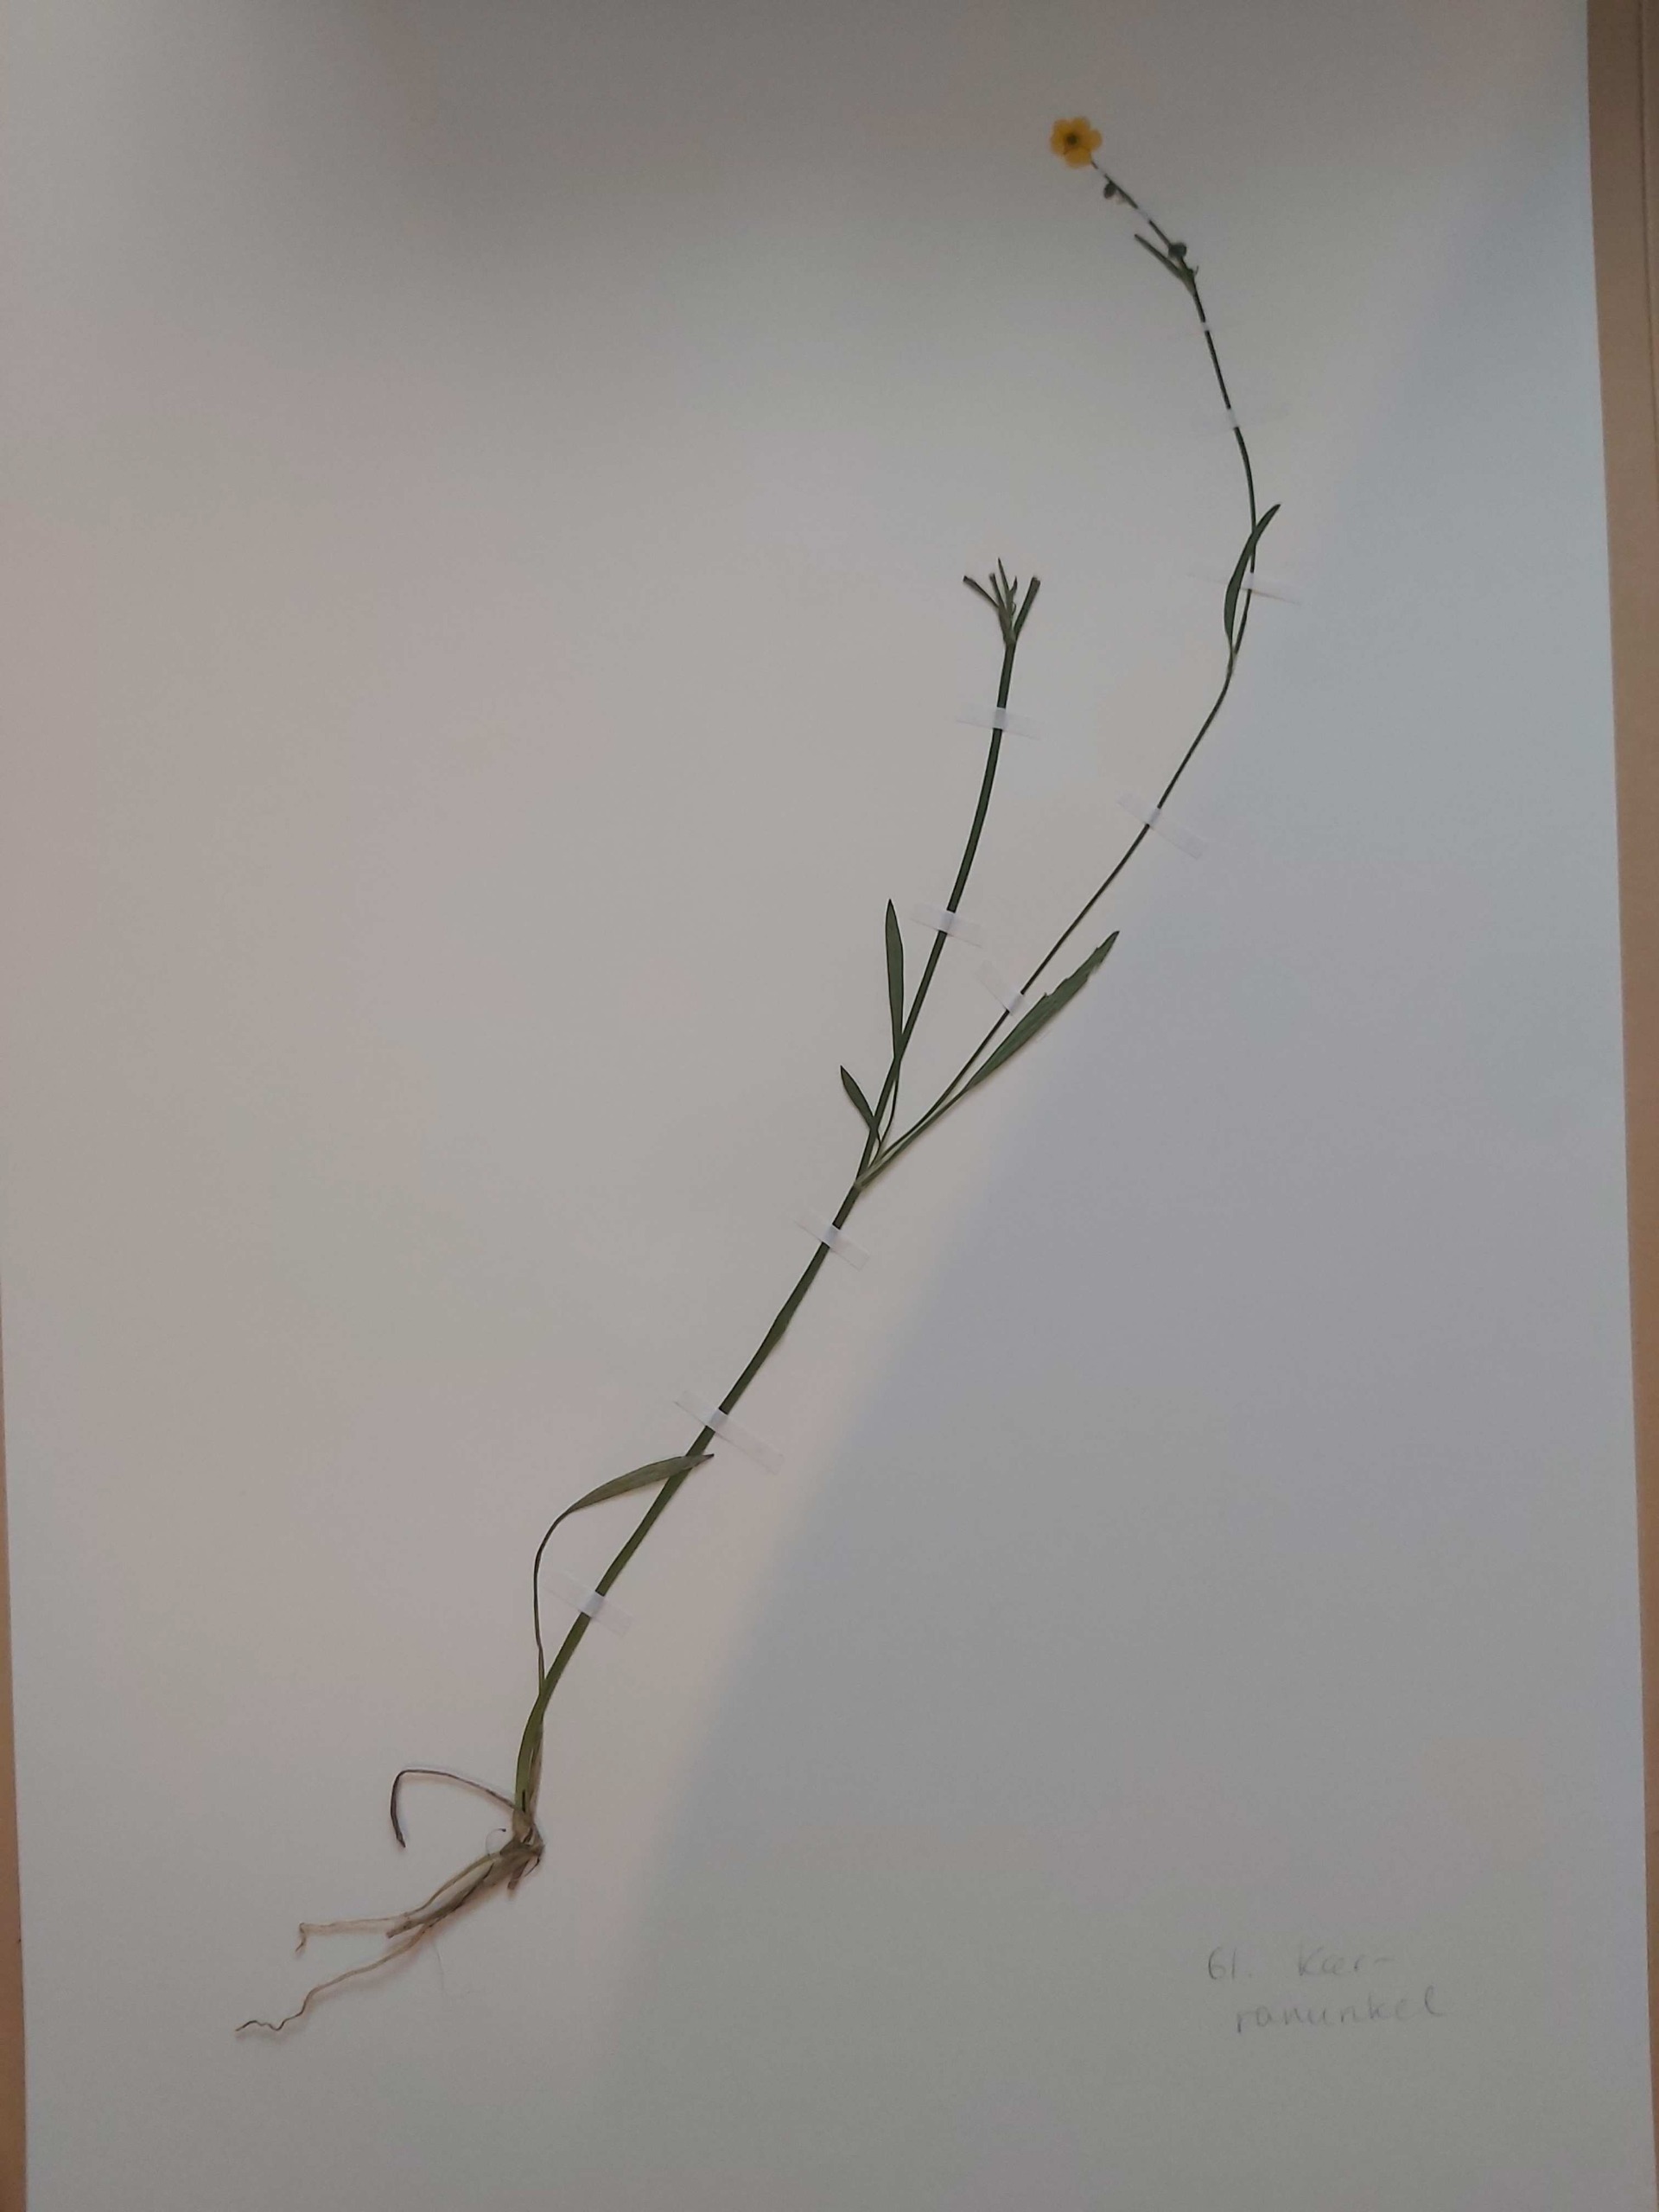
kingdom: Plantae
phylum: Tracheophyta
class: Magnoliopsida
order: Ranunculales
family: Ranunculaceae
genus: Ranunculus
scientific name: Ranunculus flammula
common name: Kær-ranunkel
